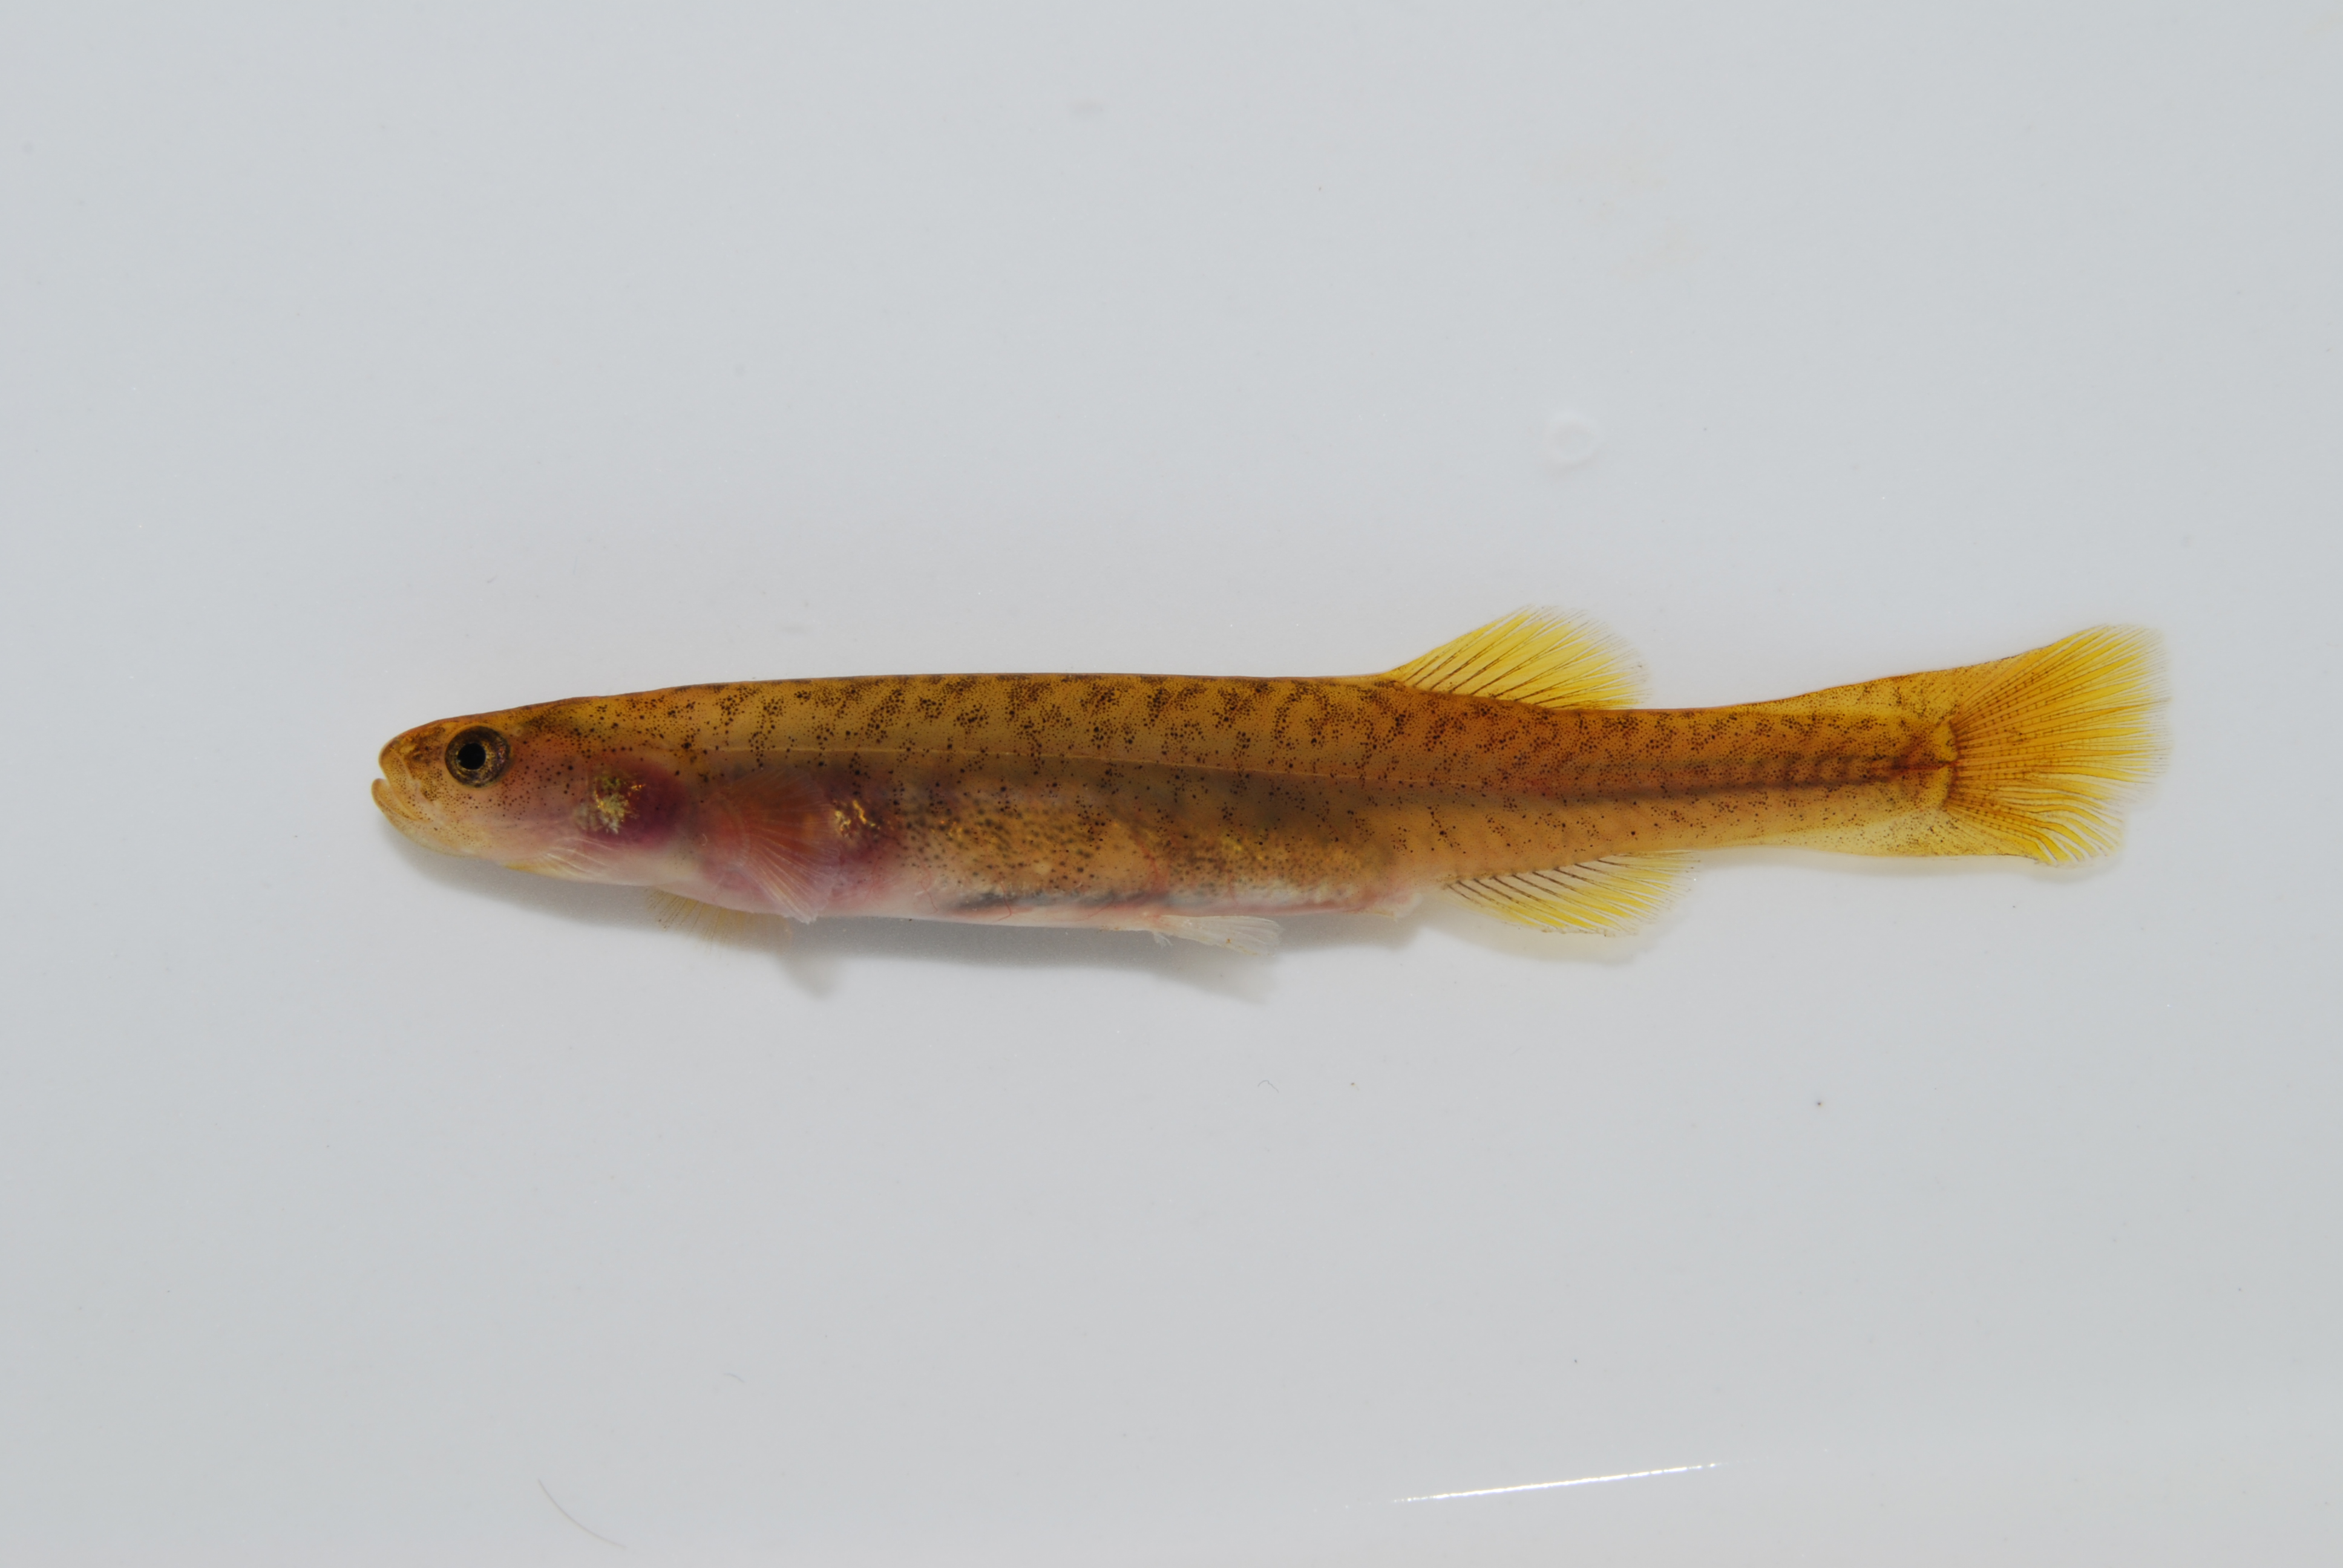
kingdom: Animalia
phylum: Chordata
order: Osmeriformes
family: Galaxiidae
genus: Galaxias
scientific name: Galaxias zebratus
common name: Cape galaxias
